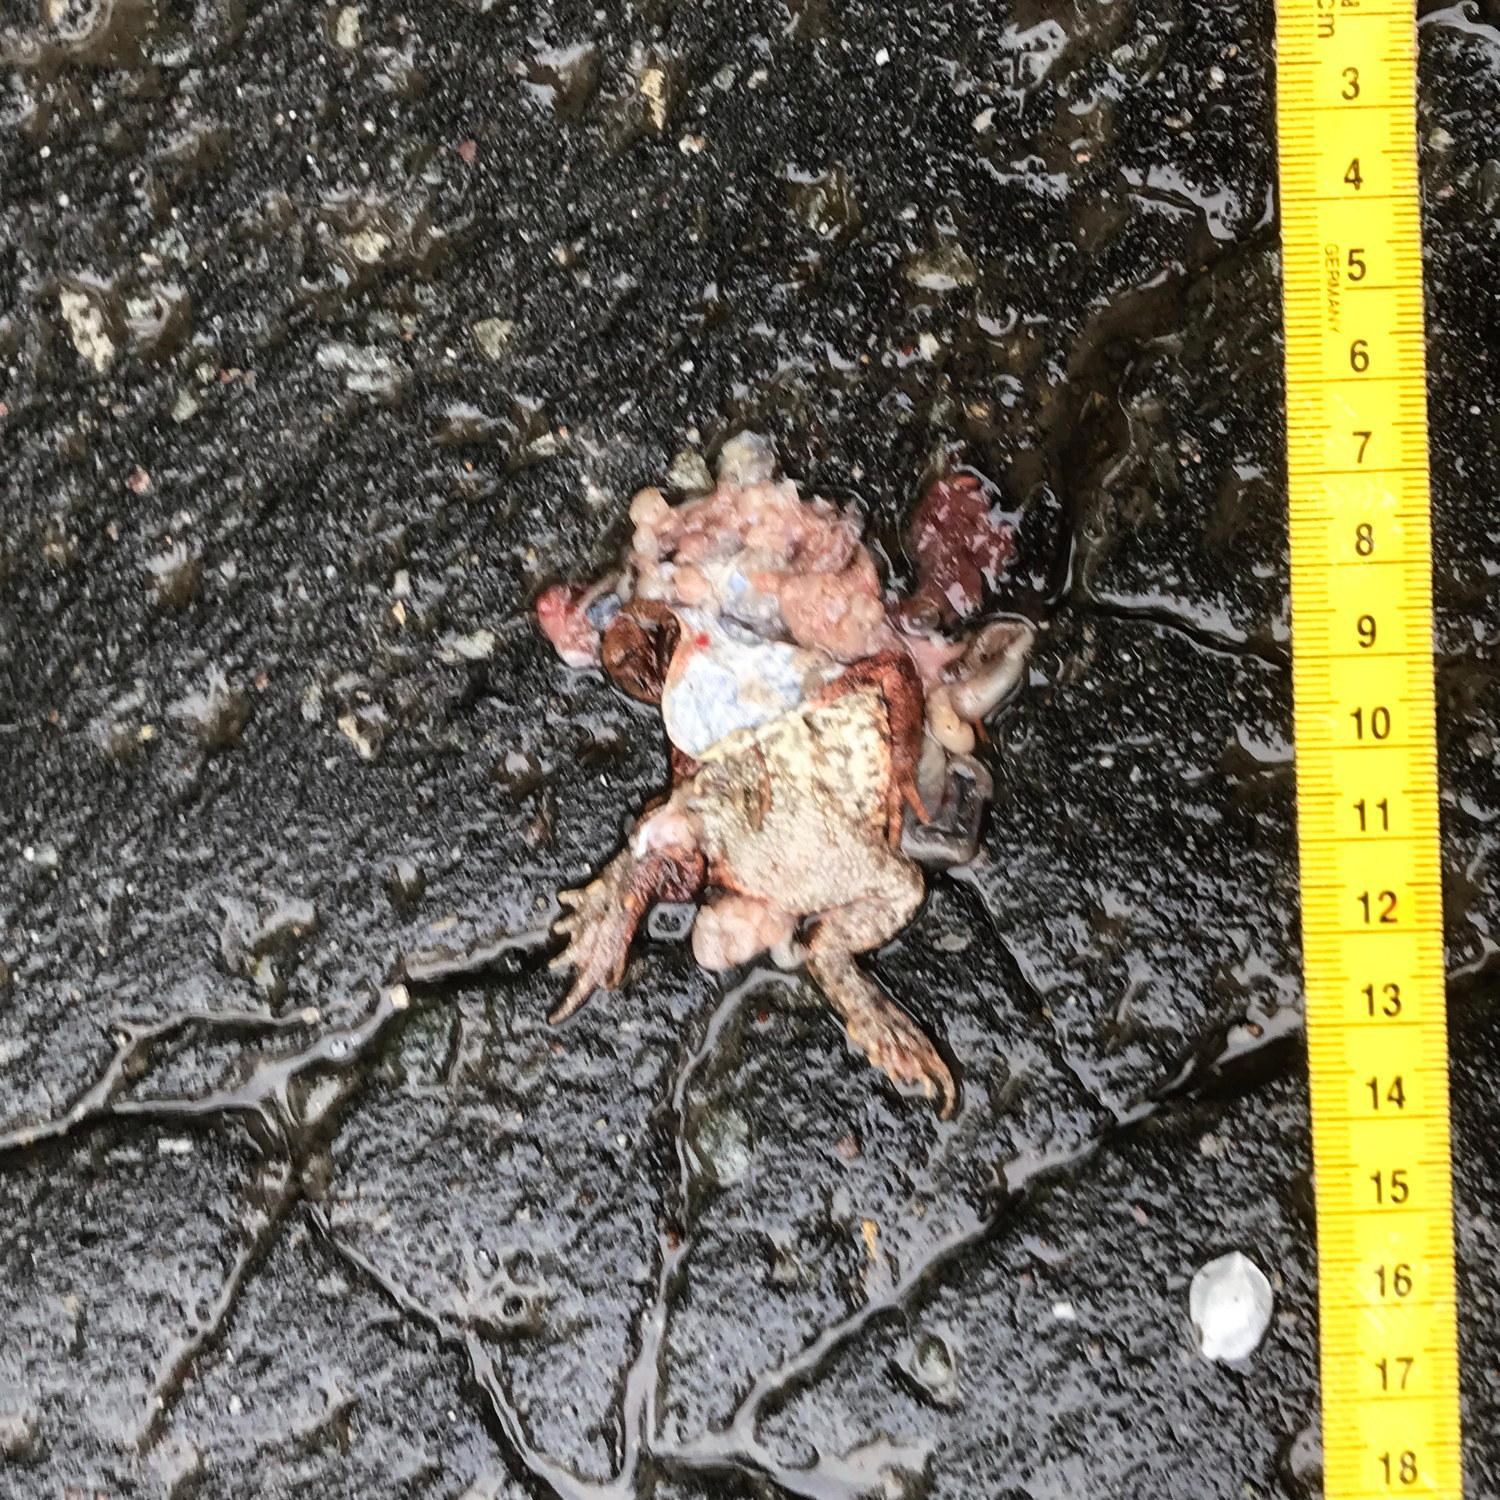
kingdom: Animalia
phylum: Chordata
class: Amphibia
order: Anura
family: Bufonidae
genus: Bufo
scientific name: Bufo bufo
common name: Common toad
